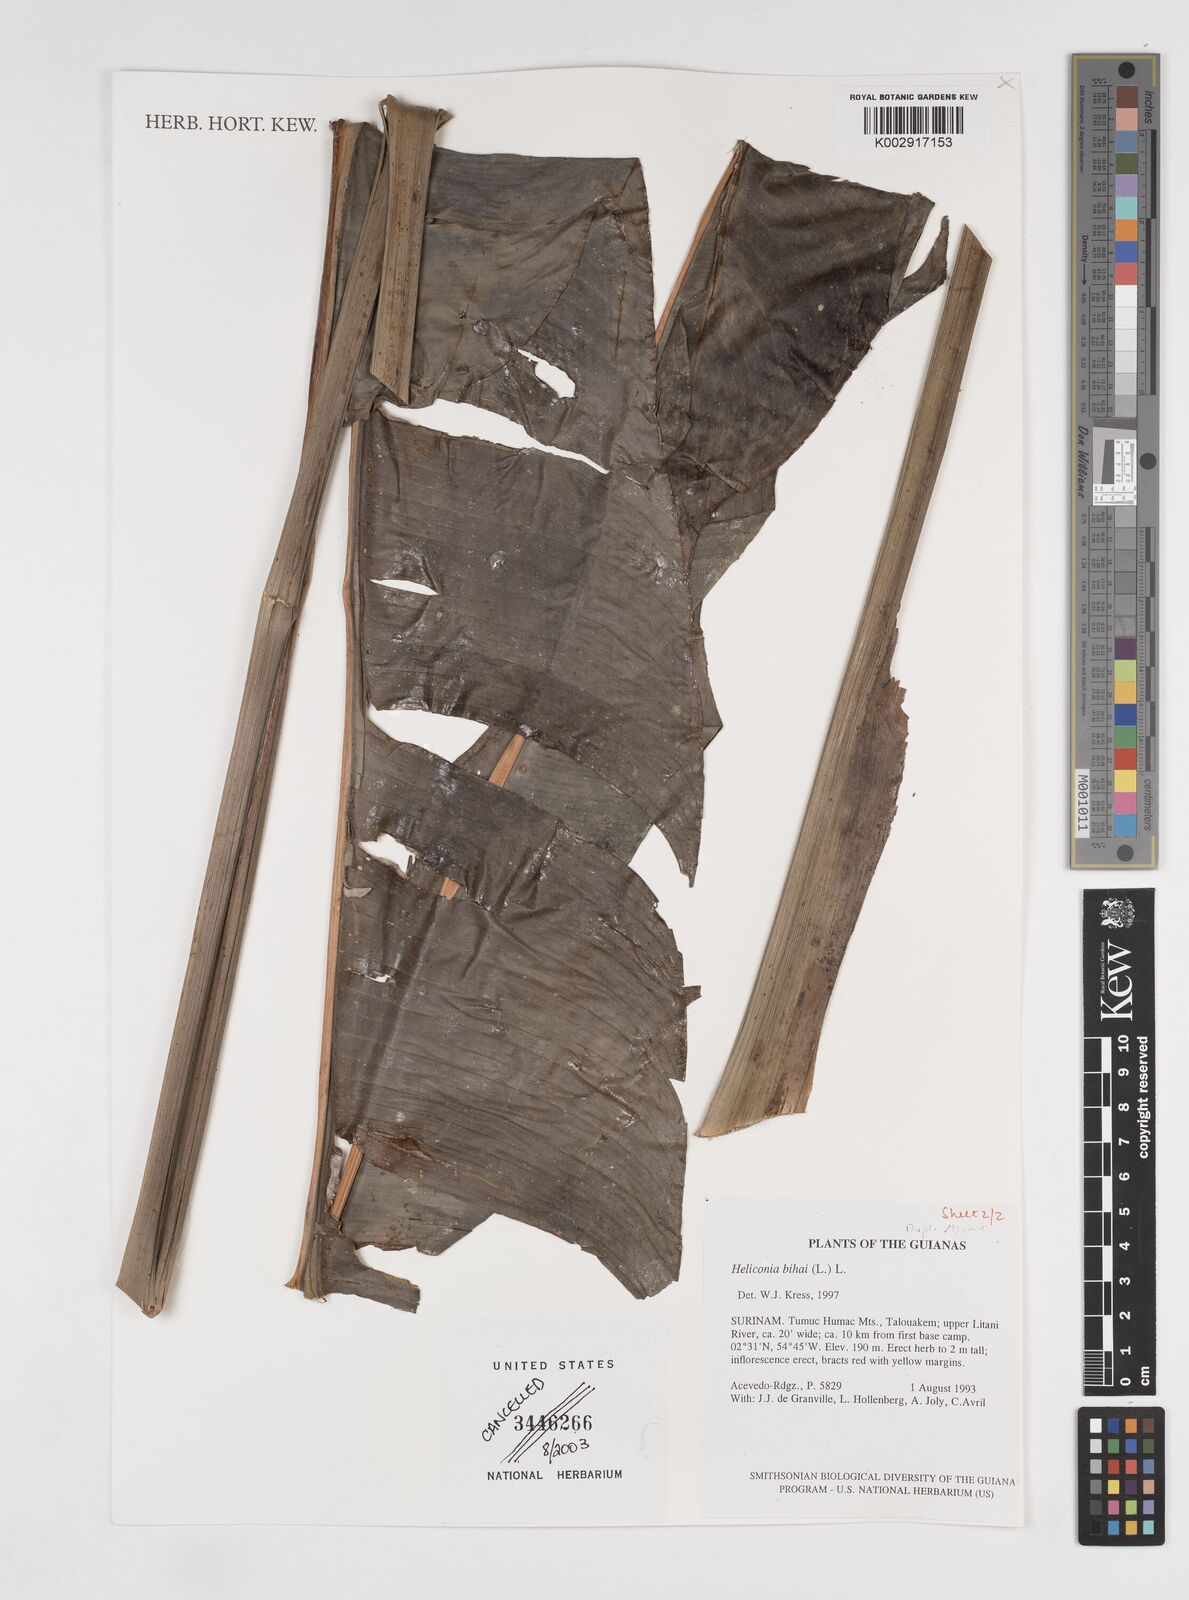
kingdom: Plantae
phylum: Tracheophyta
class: Liliopsida
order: Zingiberales
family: Heliconiaceae
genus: Heliconia
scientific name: Heliconia bihai
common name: Macaw flower
